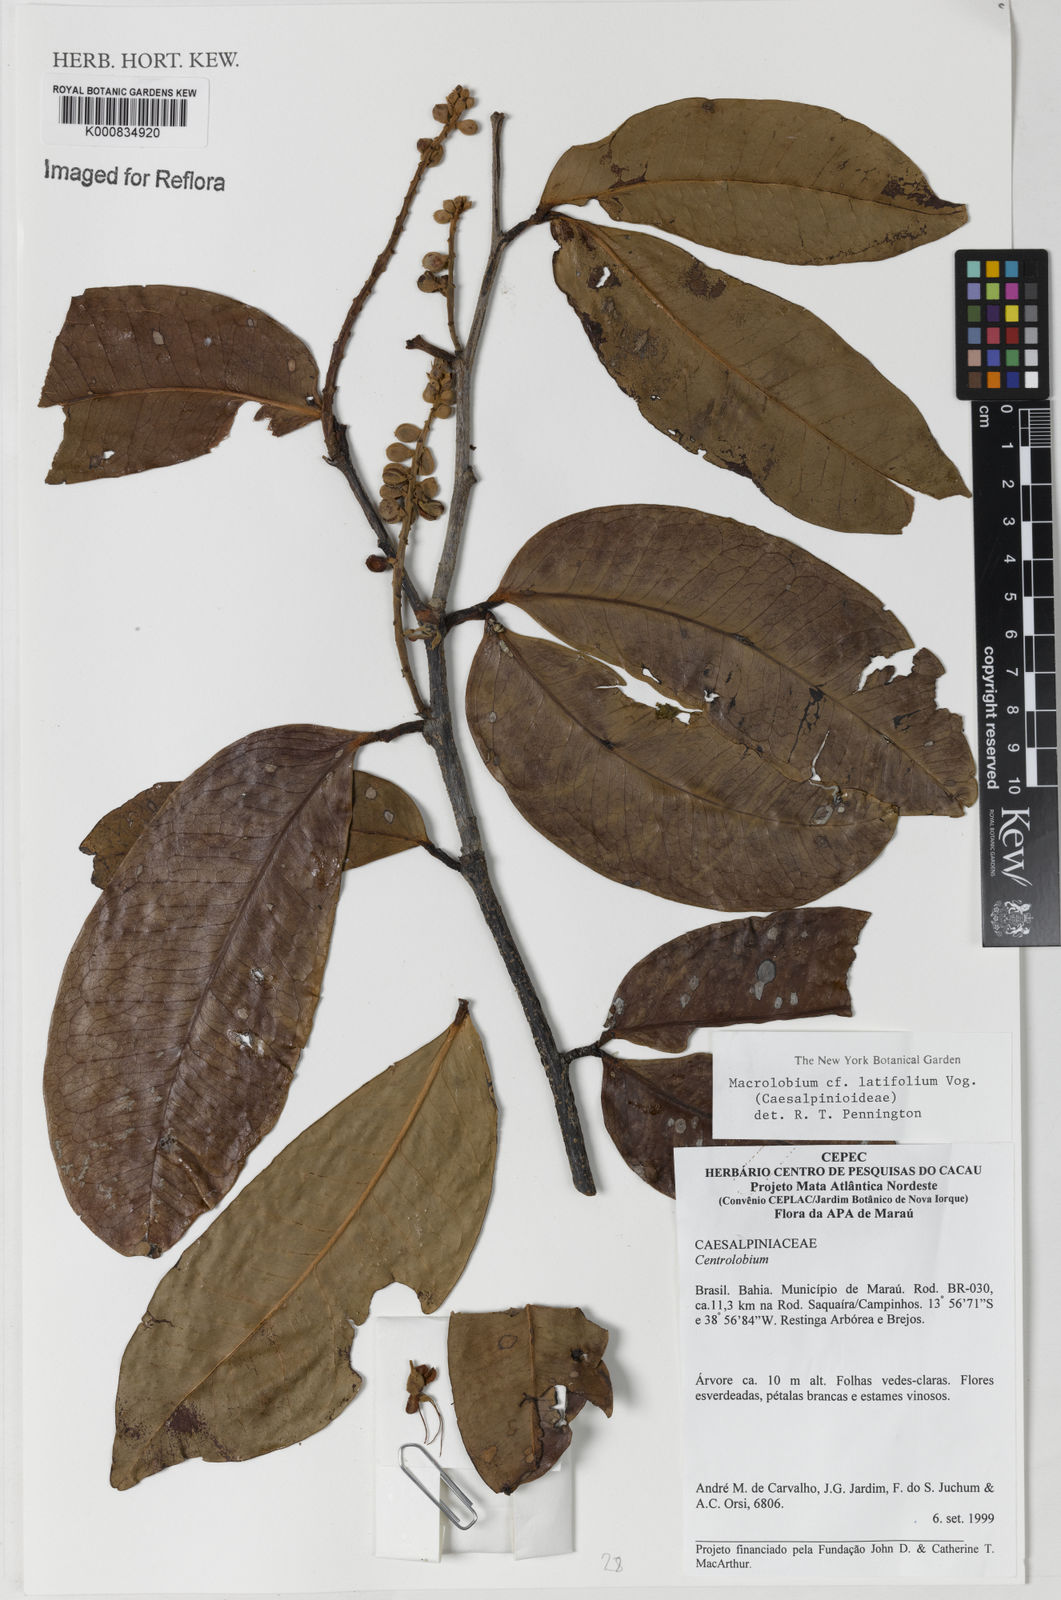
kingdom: Plantae
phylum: Tracheophyta
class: Magnoliopsida
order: Fabales
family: Fabaceae
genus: Macrolobium
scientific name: Macrolobium latifolium
